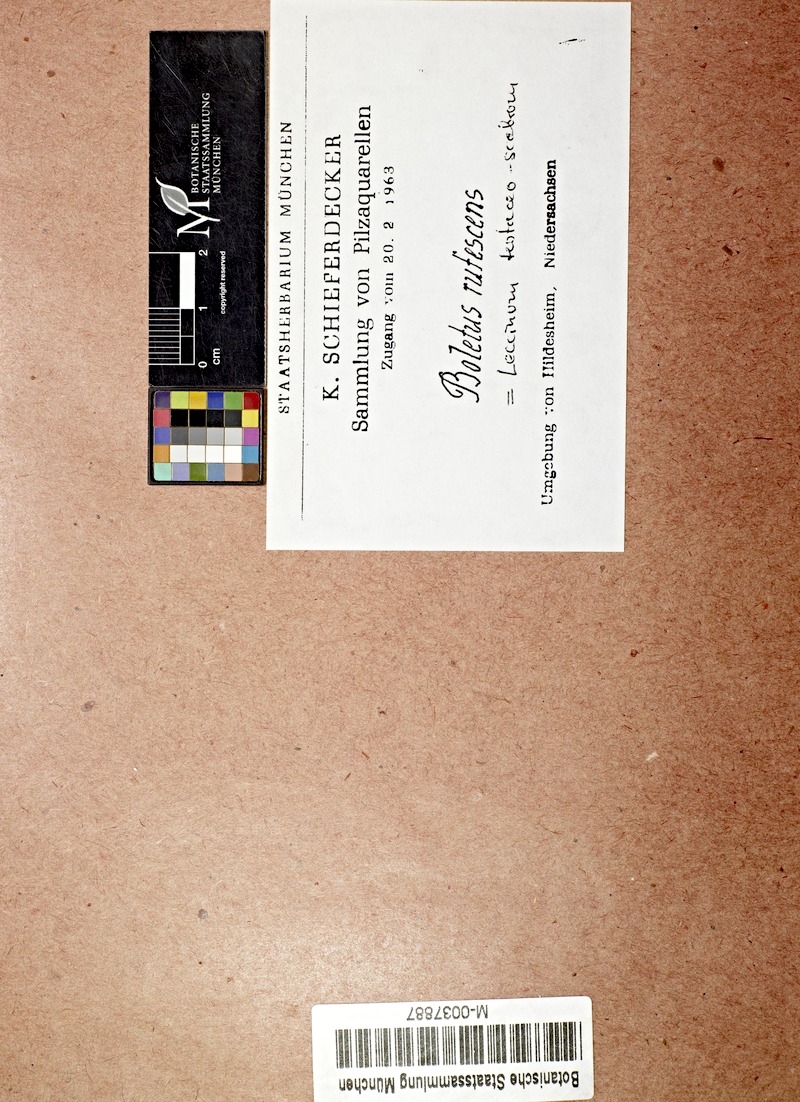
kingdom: Fungi
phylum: Basidiomycota
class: Agaricomycetes
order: Boletales
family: Boletaceae
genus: Leccinum
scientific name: Leccinum versipelle
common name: Orange birch bolete
